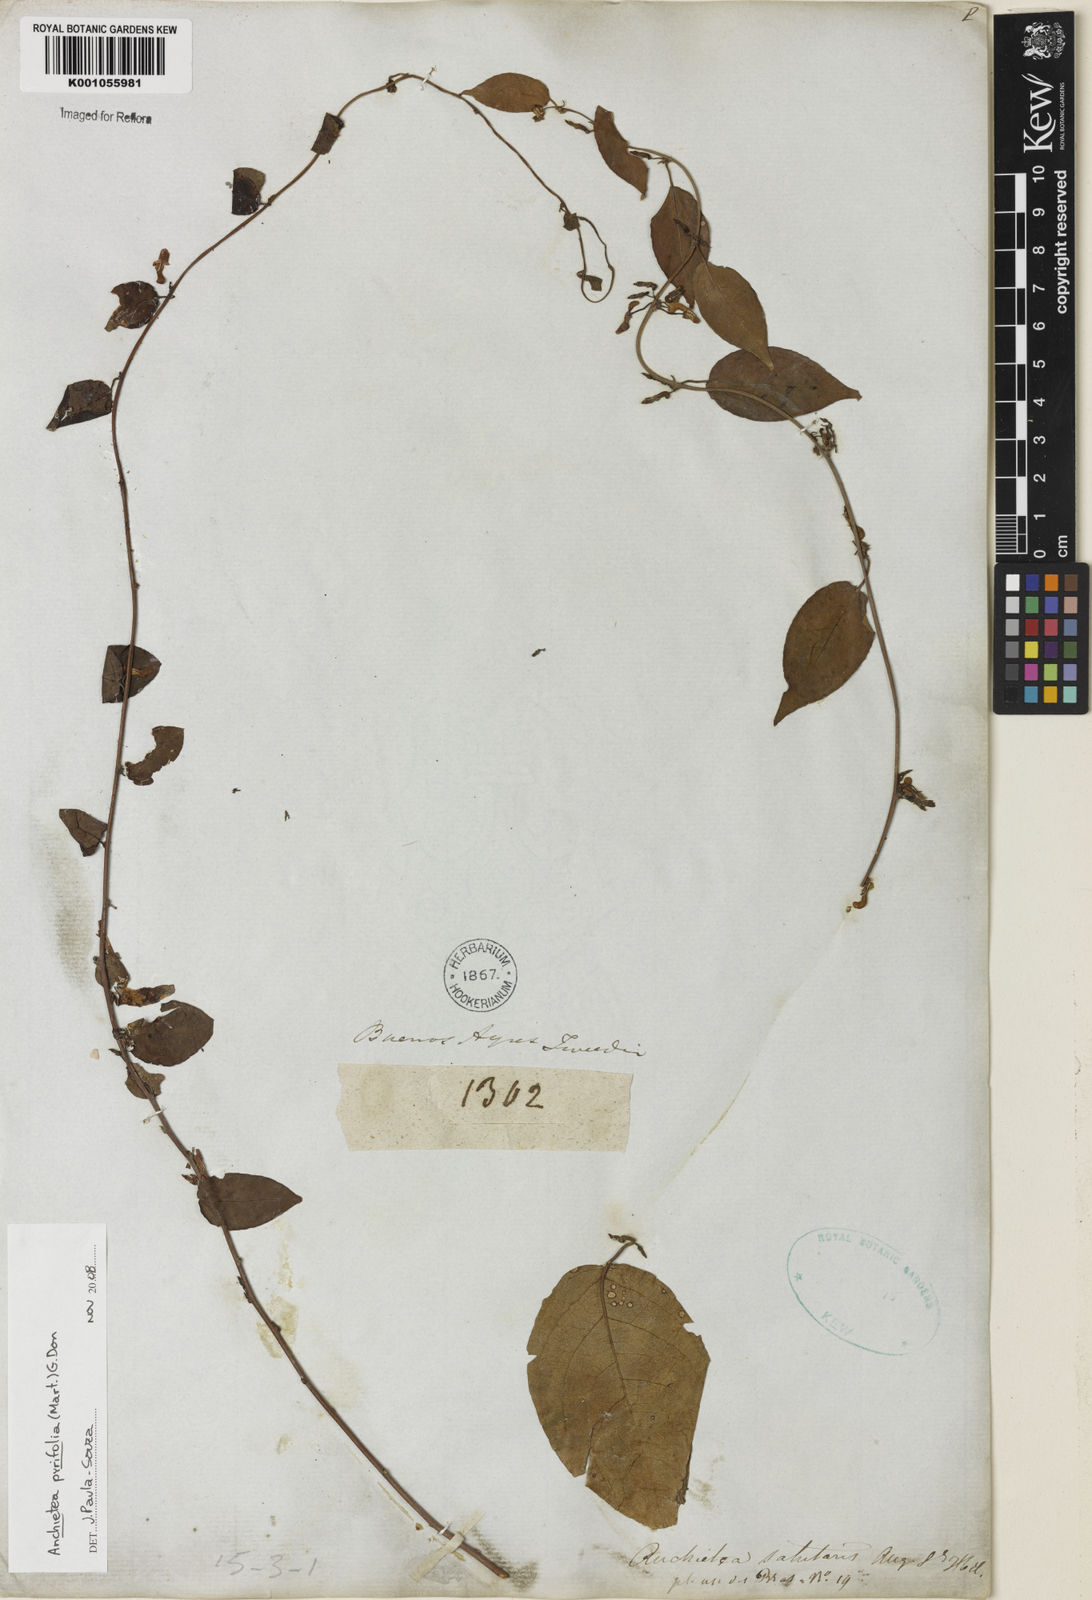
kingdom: Plantae
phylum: Tracheophyta
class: Magnoliopsida
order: Malpighiales
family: Violaceae
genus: Anchietea
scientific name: Anchietea pyrifolia
